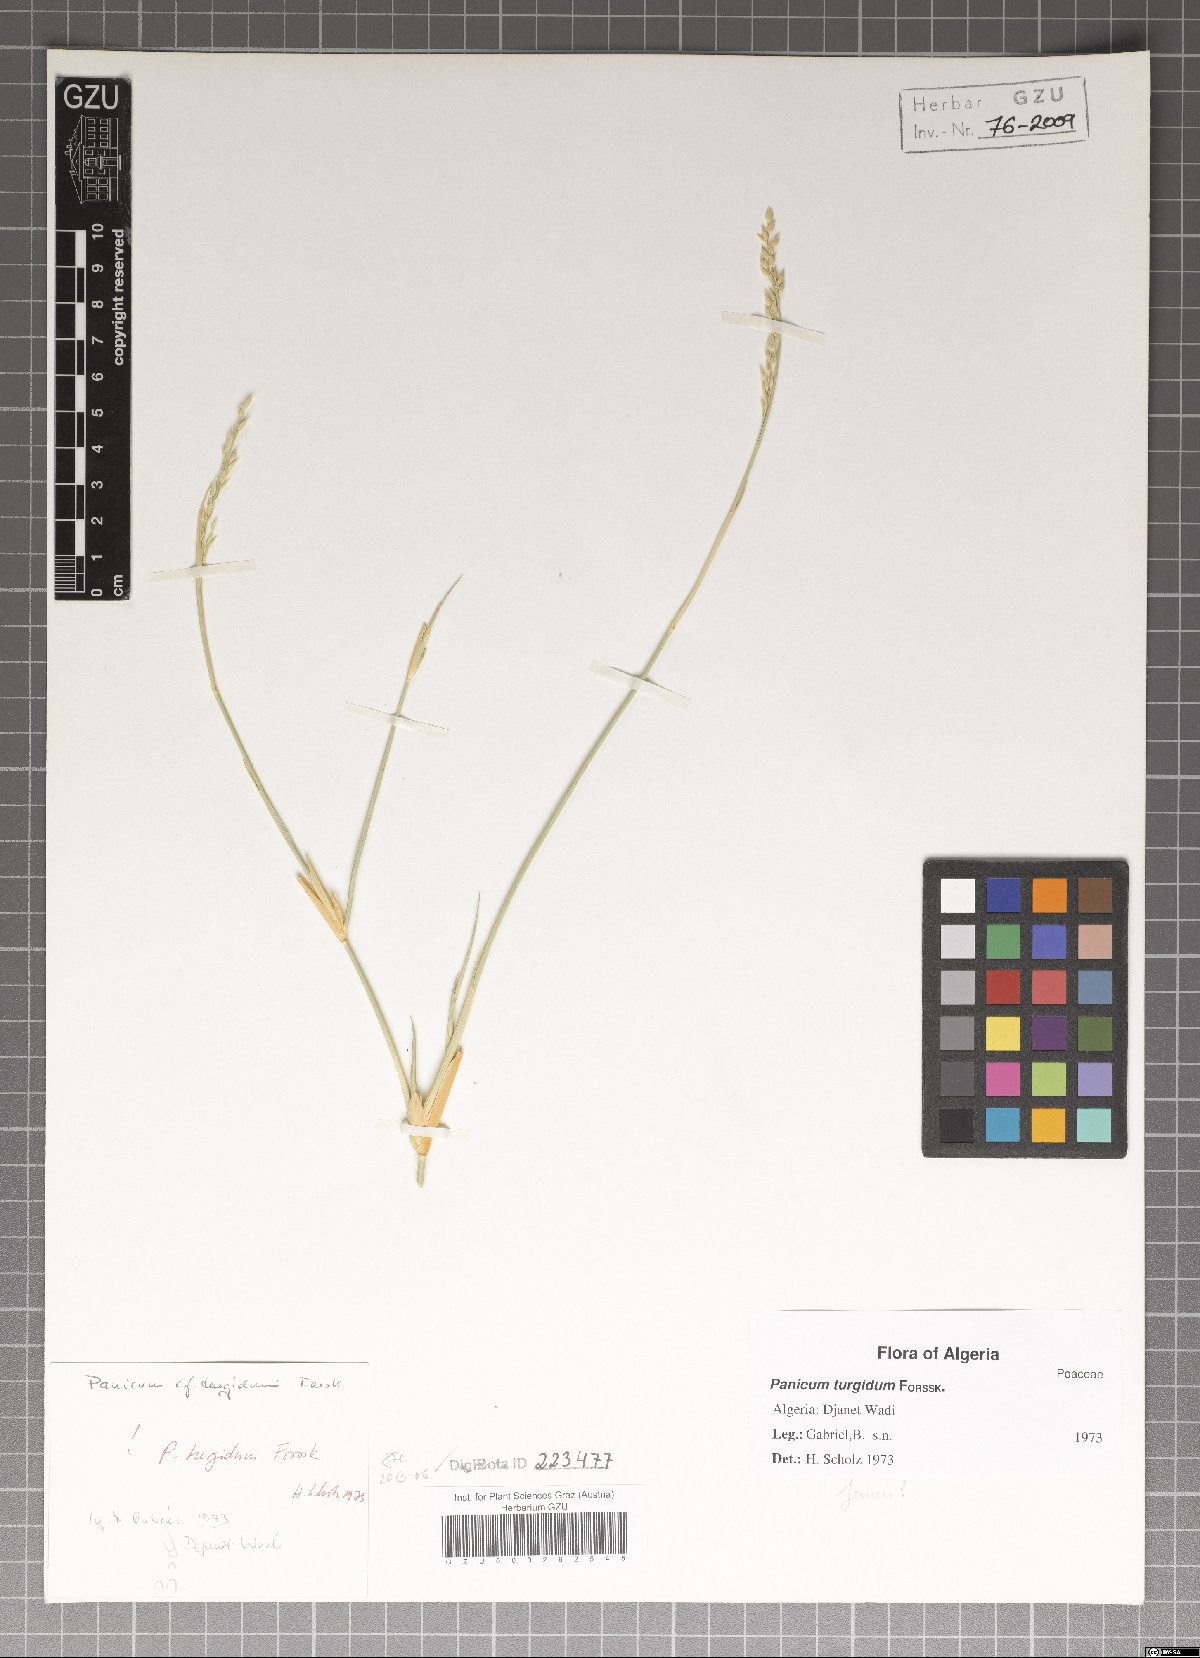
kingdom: Plantae
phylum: Tracheophyta
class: Liliopsida
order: Poales
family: Poaceae
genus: Panicum
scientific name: Panicum turgidum
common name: Desert grass
